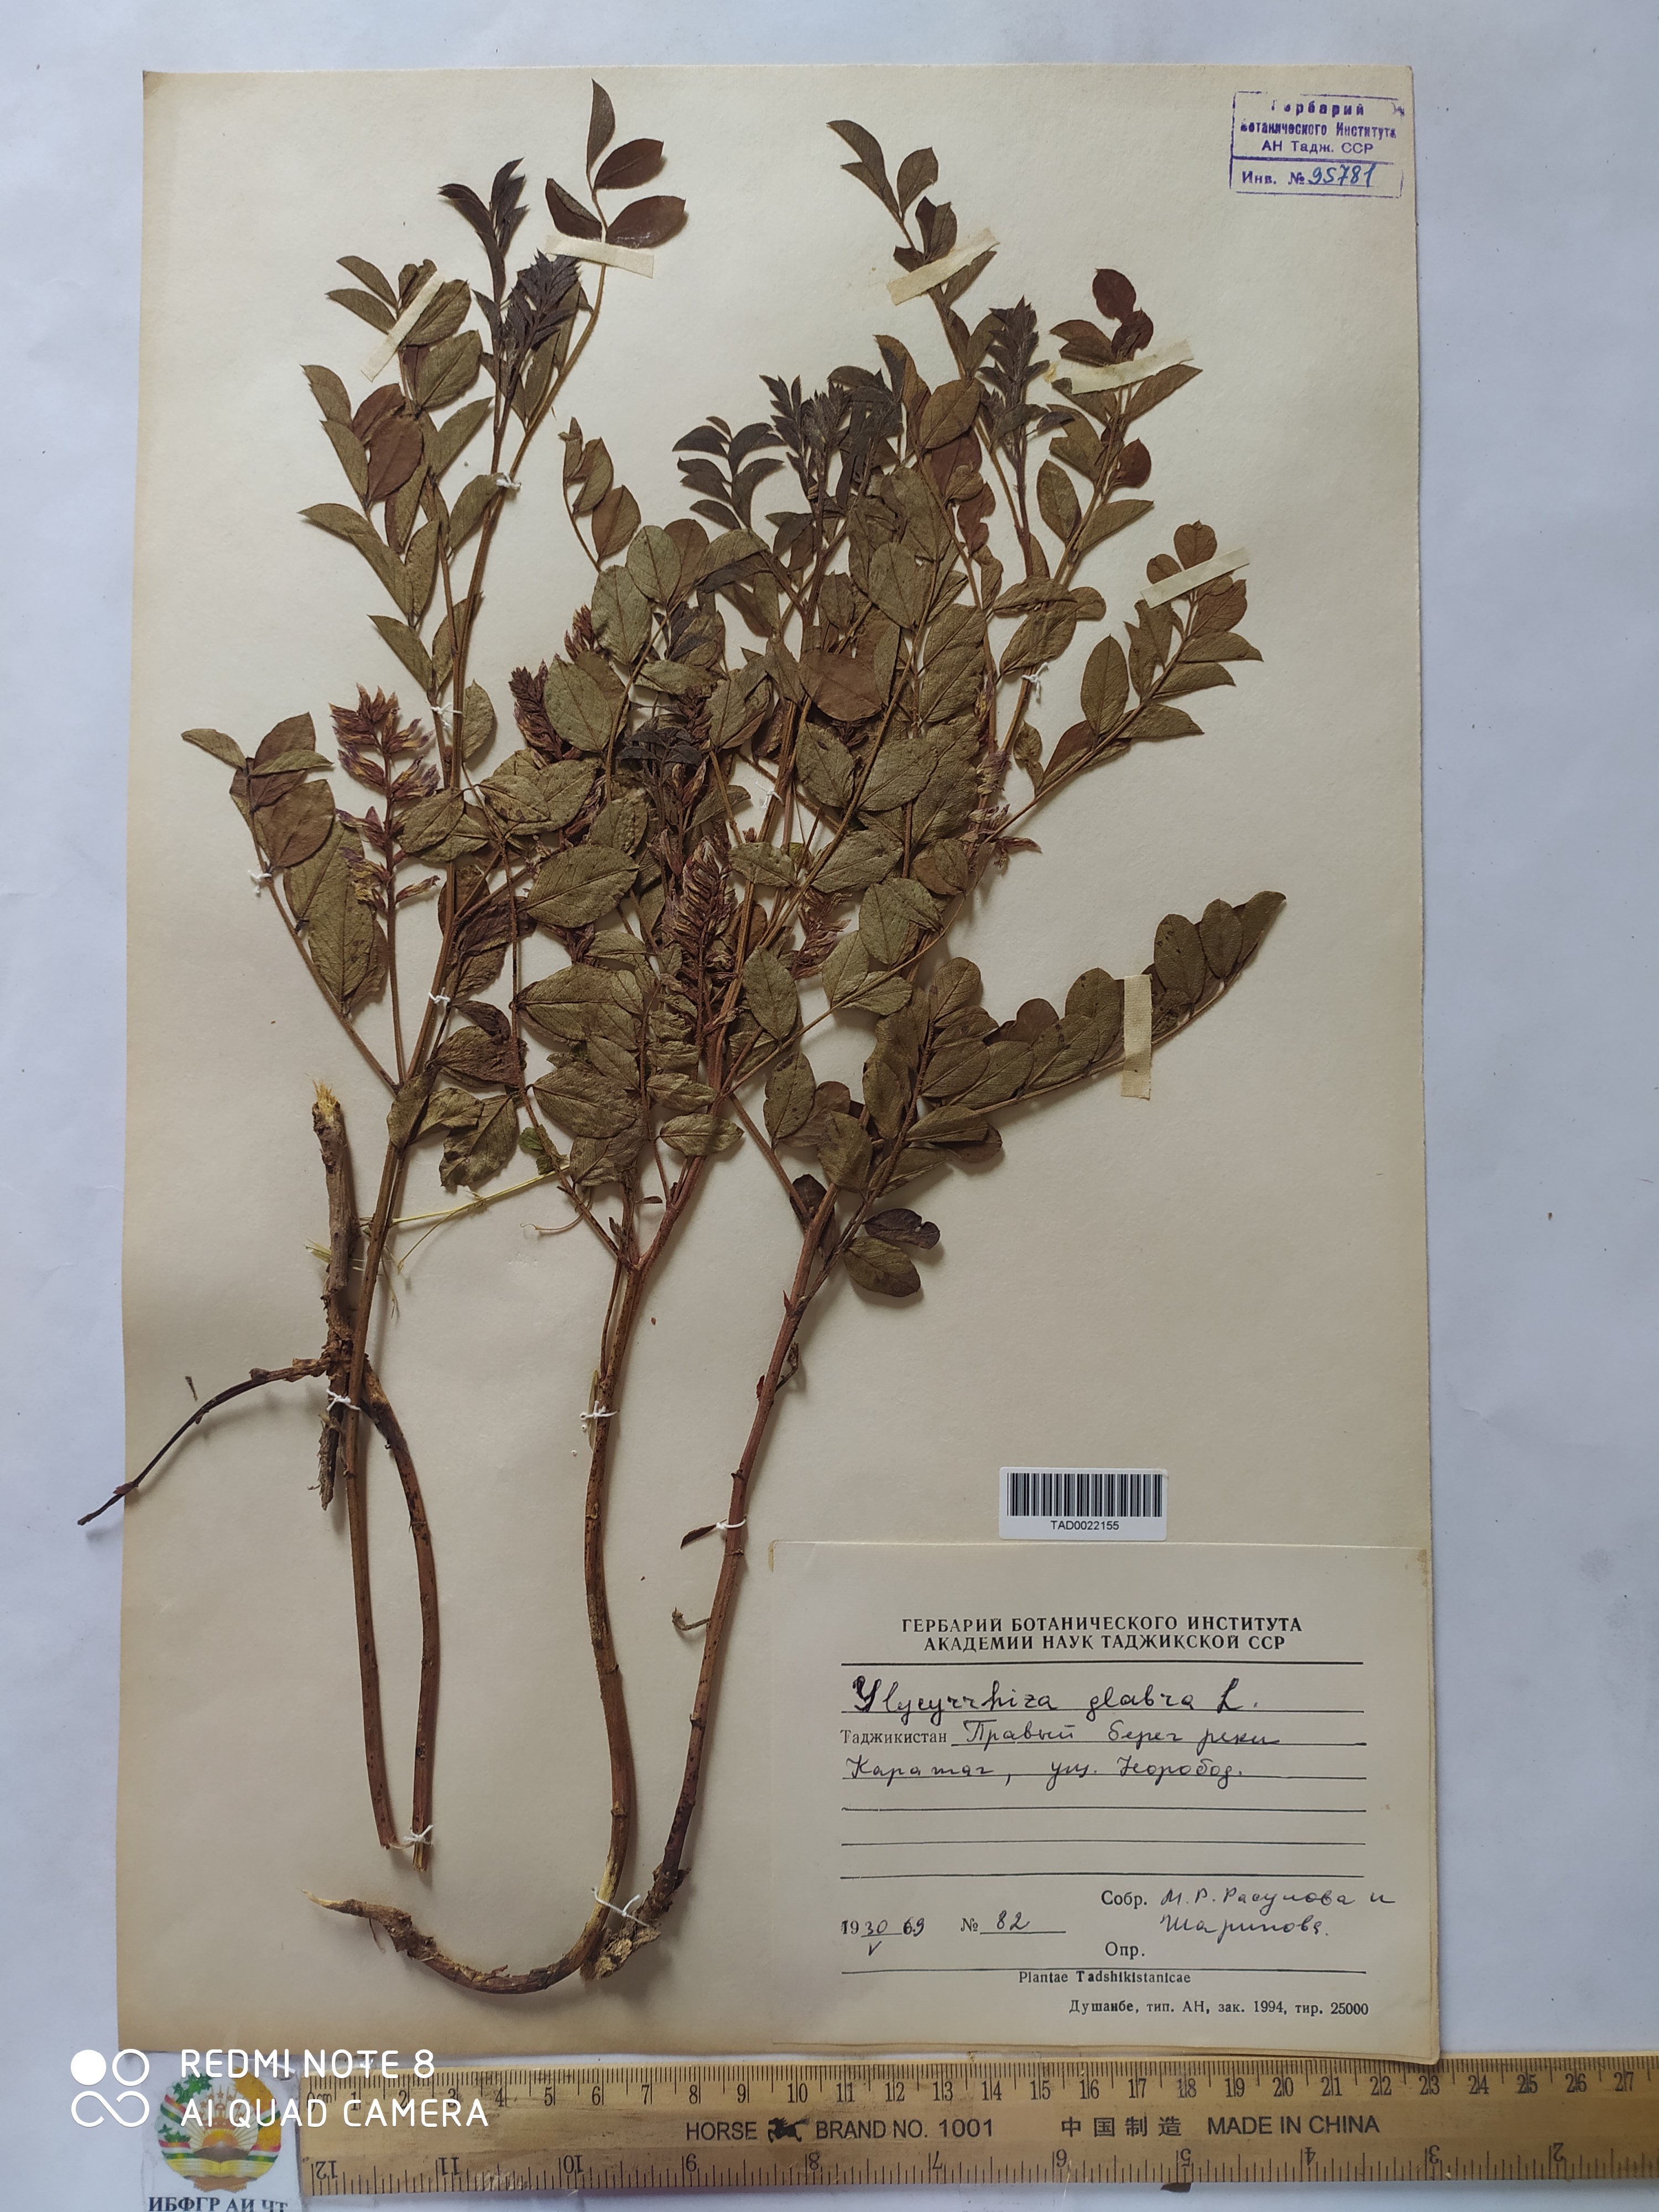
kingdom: Plantae
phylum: Tracheophyta
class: Magnoliopsida
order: Fabales
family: Fabaceae
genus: Glycyrrhiza
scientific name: Glycyrrhiza glabra
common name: Liquorice
